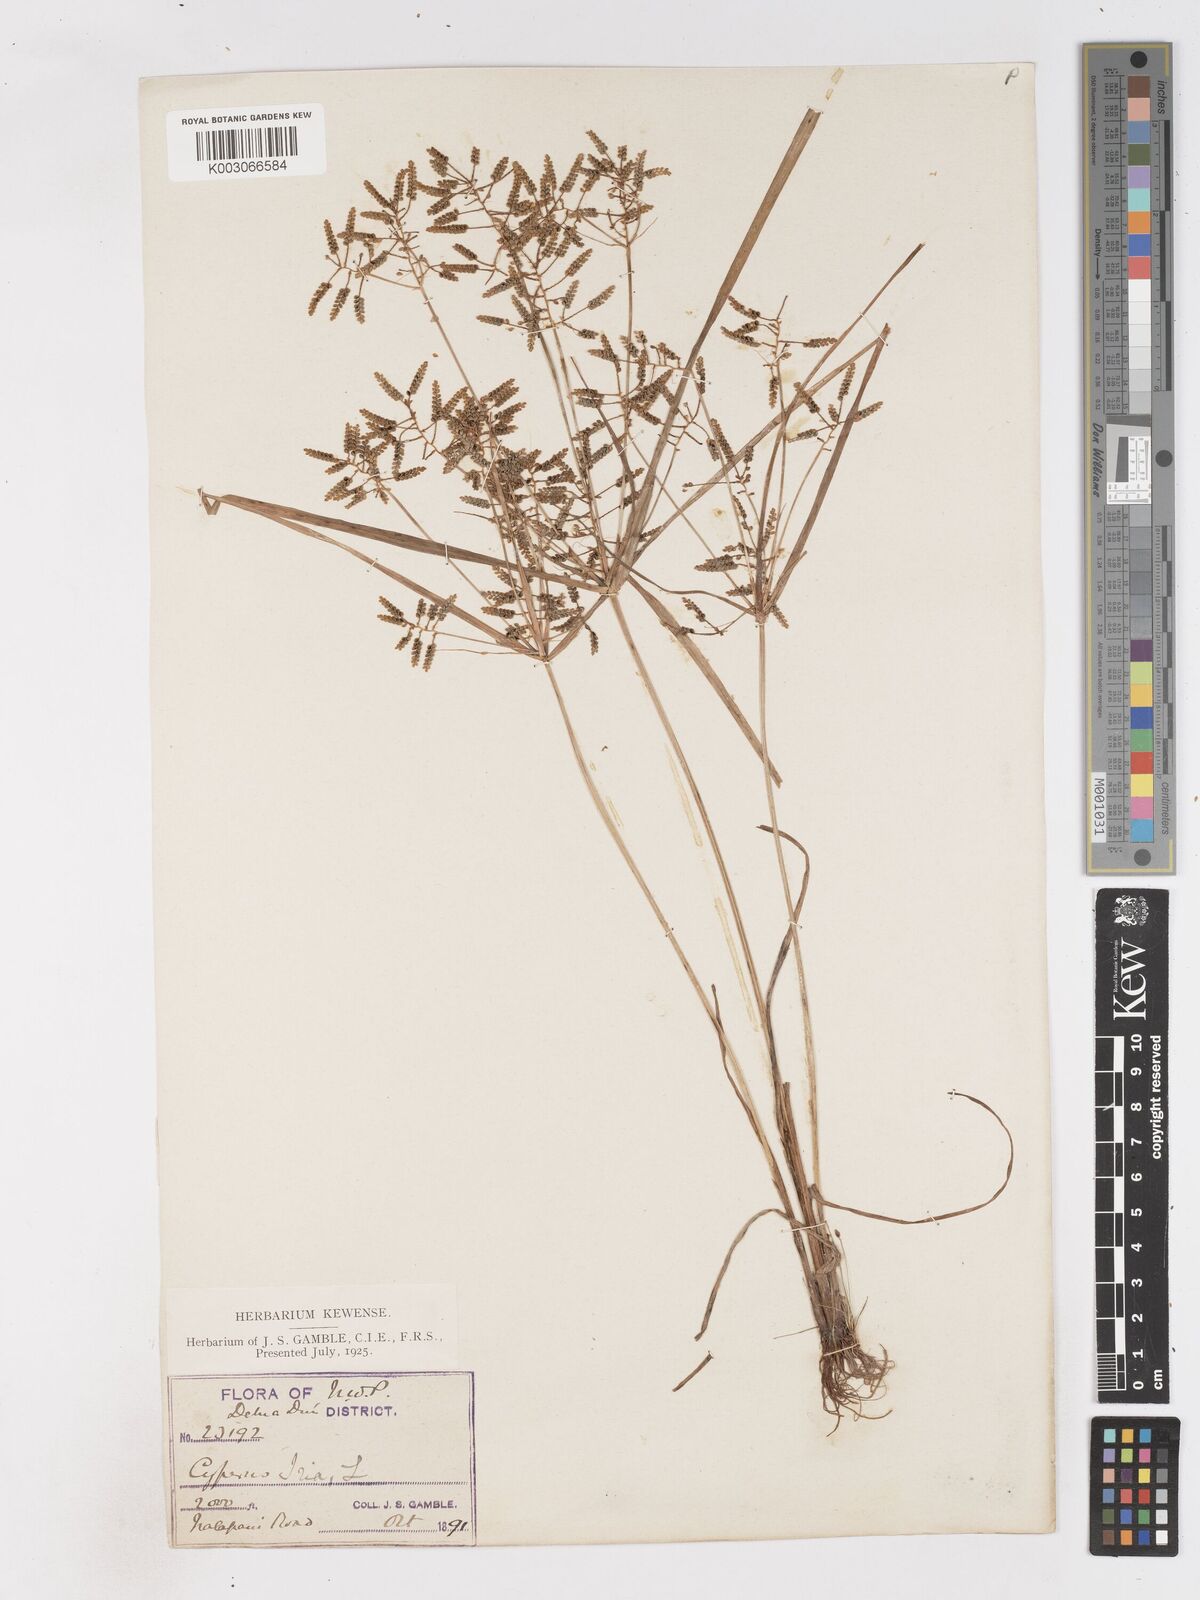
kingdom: Plantae
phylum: Tracheophyta
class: Liliopsida
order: Poales
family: Cyperaceae
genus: Cyperus
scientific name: Cyperus alulatus
